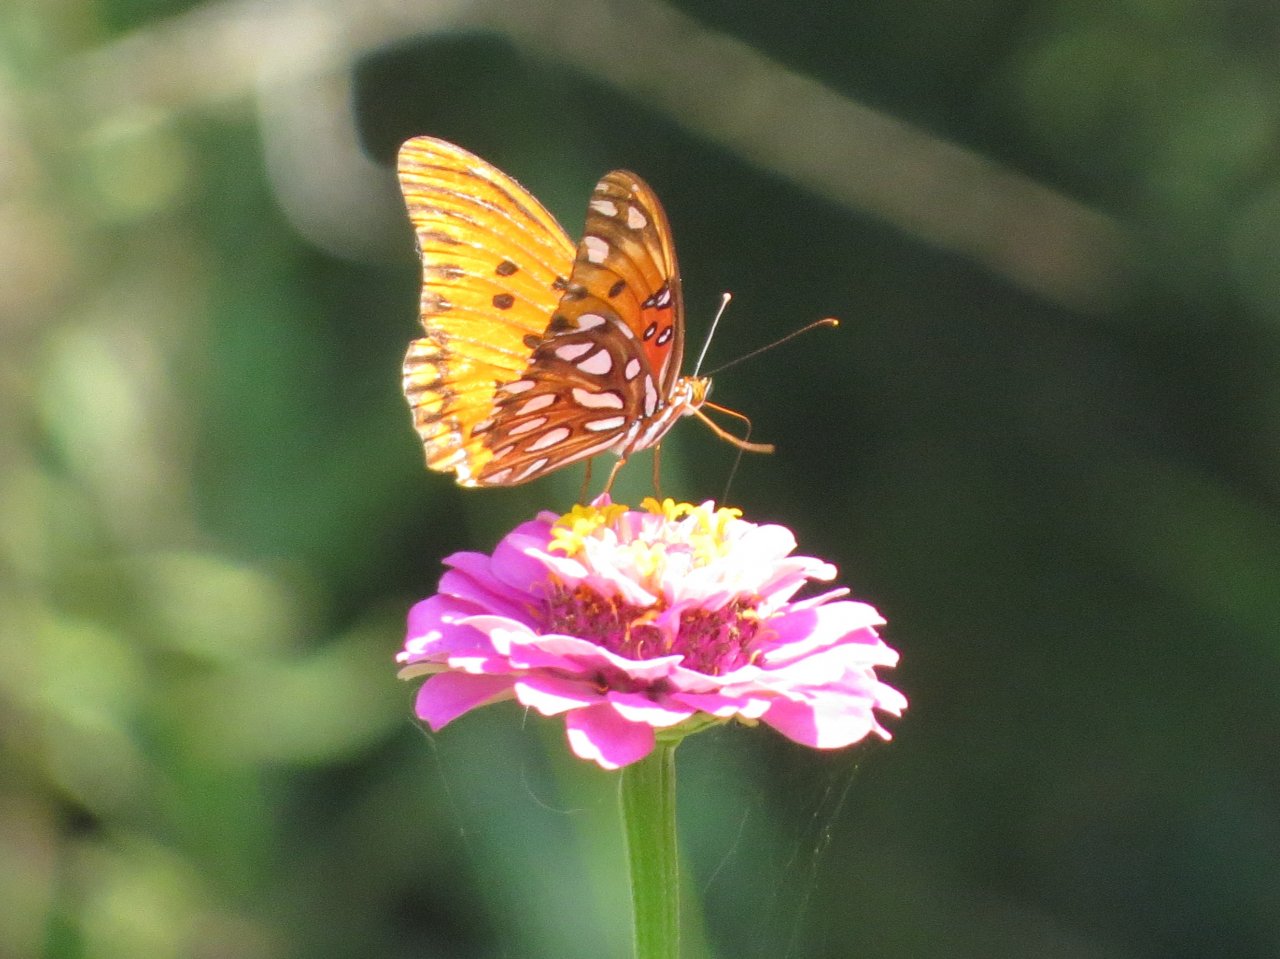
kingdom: Animalia
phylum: Arthropoda
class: Insecta
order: Lepidoptera
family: Nymphalidae
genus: Dione
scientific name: Dione vanillae
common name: Gulf Fritillary
